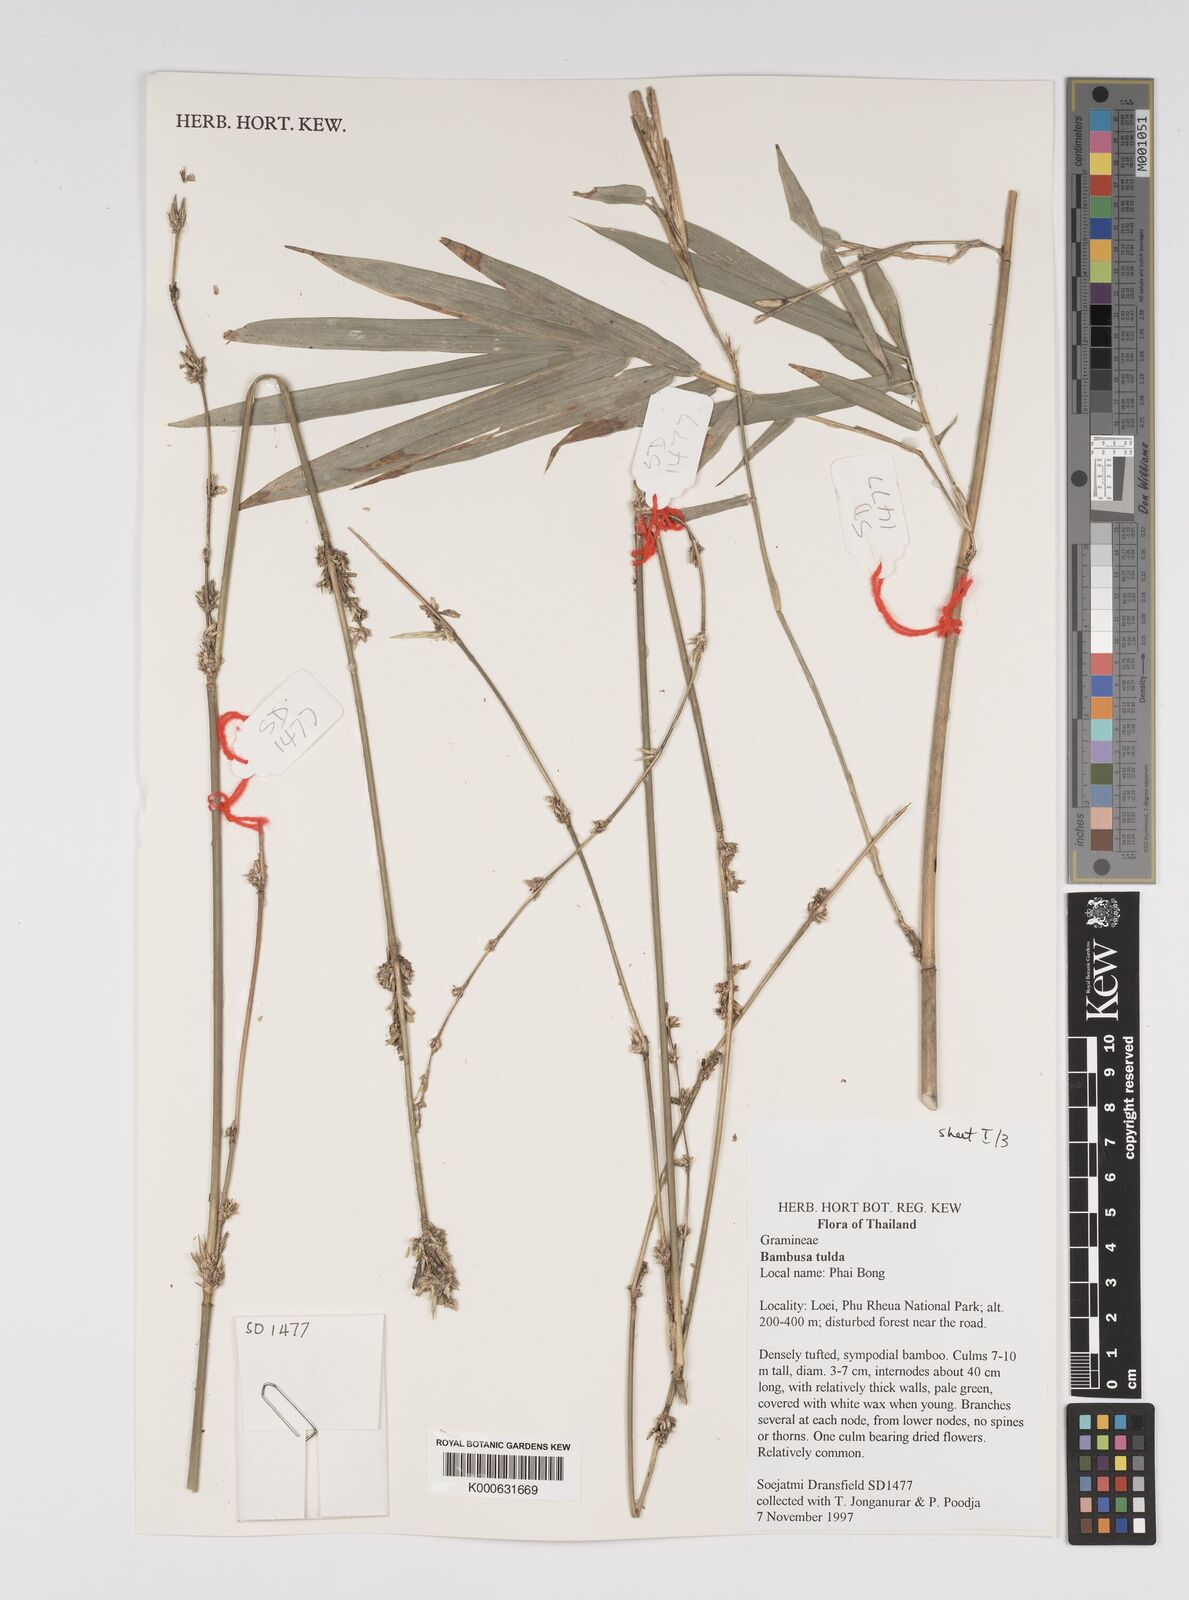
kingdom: Plantae
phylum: Tracheophyta
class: Liliopsida
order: Poales
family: Poaceae
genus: Bambusa
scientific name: Bambusa
